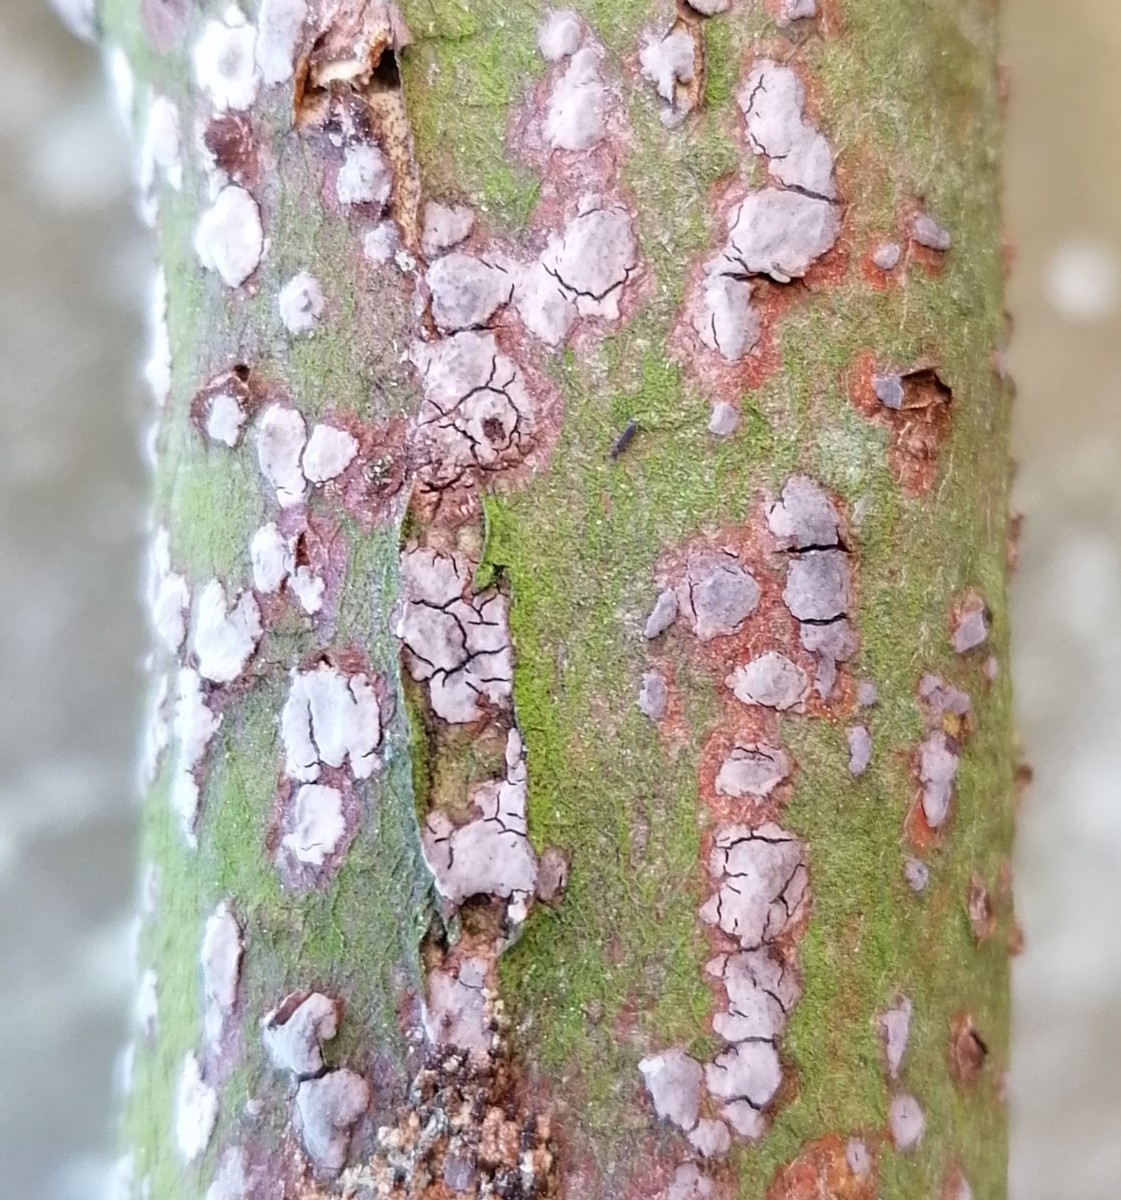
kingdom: Fungi
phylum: Basidiomycota
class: Agaricomycetes
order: Russulales
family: Peniophoraceae
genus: Peniophora
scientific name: Peniophora
